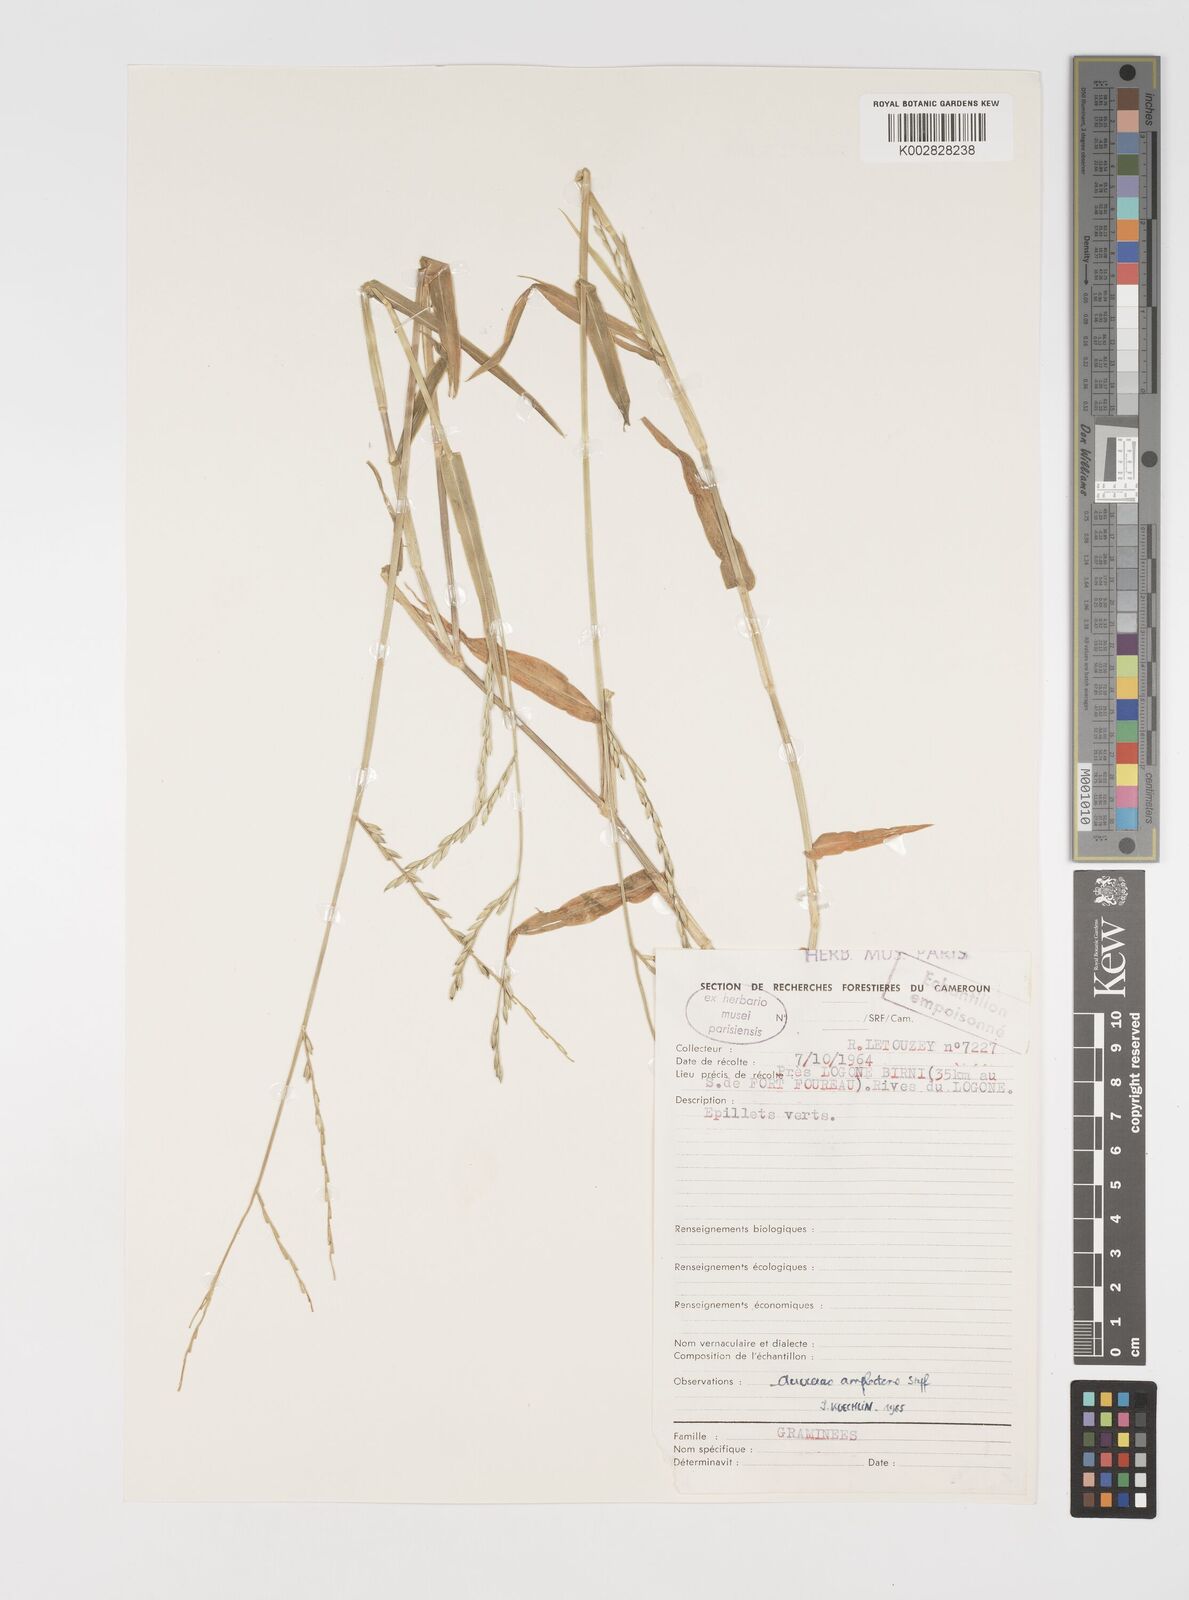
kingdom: Plantae
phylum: Tracheophyta
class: Liliopsida
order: Poales
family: Poaceae
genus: Acroceras
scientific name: Acroceras amplectens
